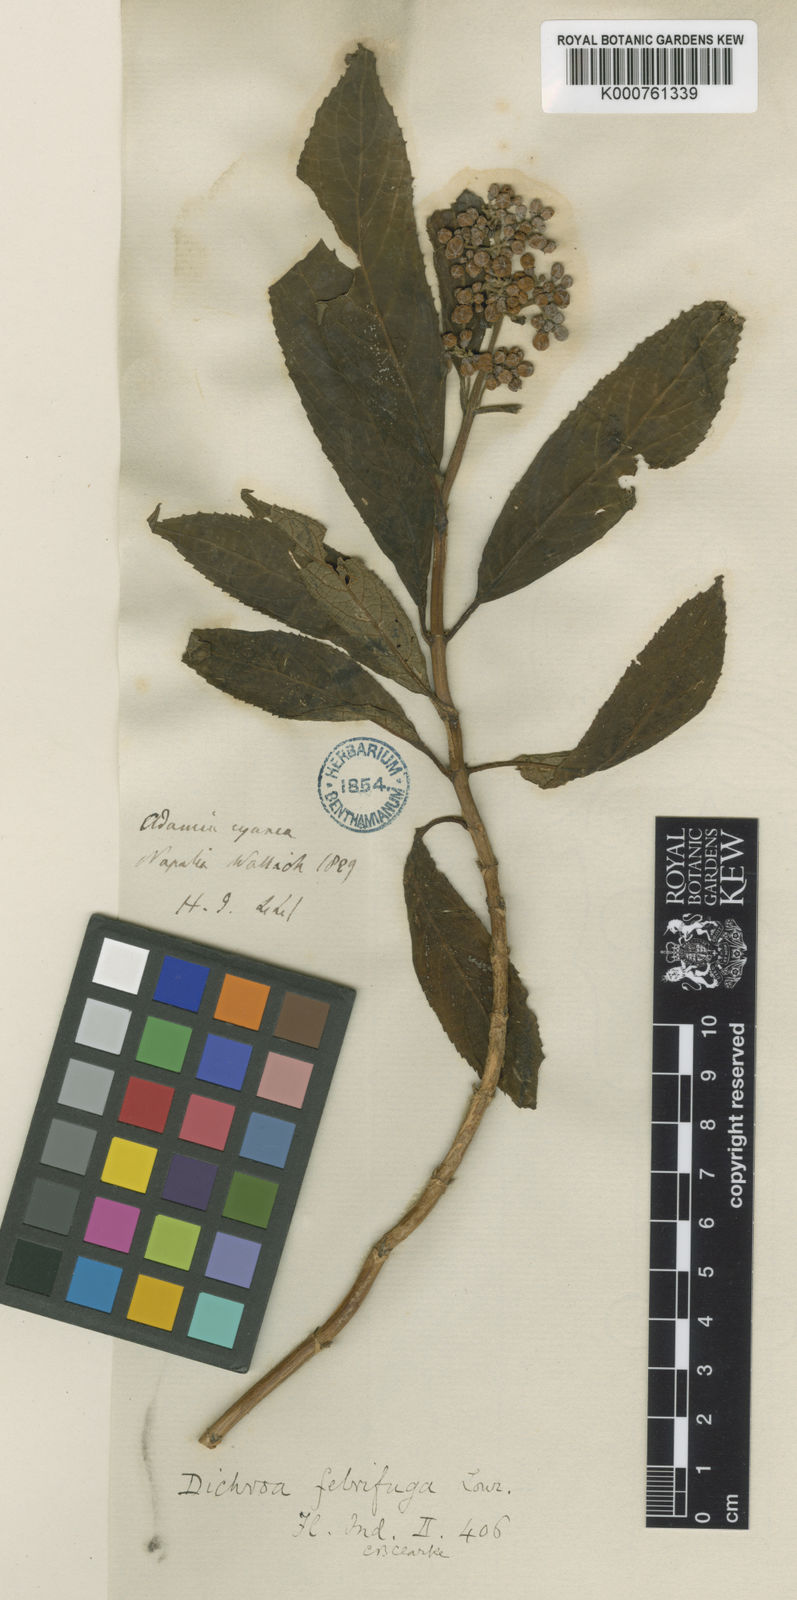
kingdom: Plantae
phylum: Tracheophyta
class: Magnoliopsida
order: Cornales
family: Hydrangeaceae
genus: Hydrangea
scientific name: Hydrangea febrifuga
